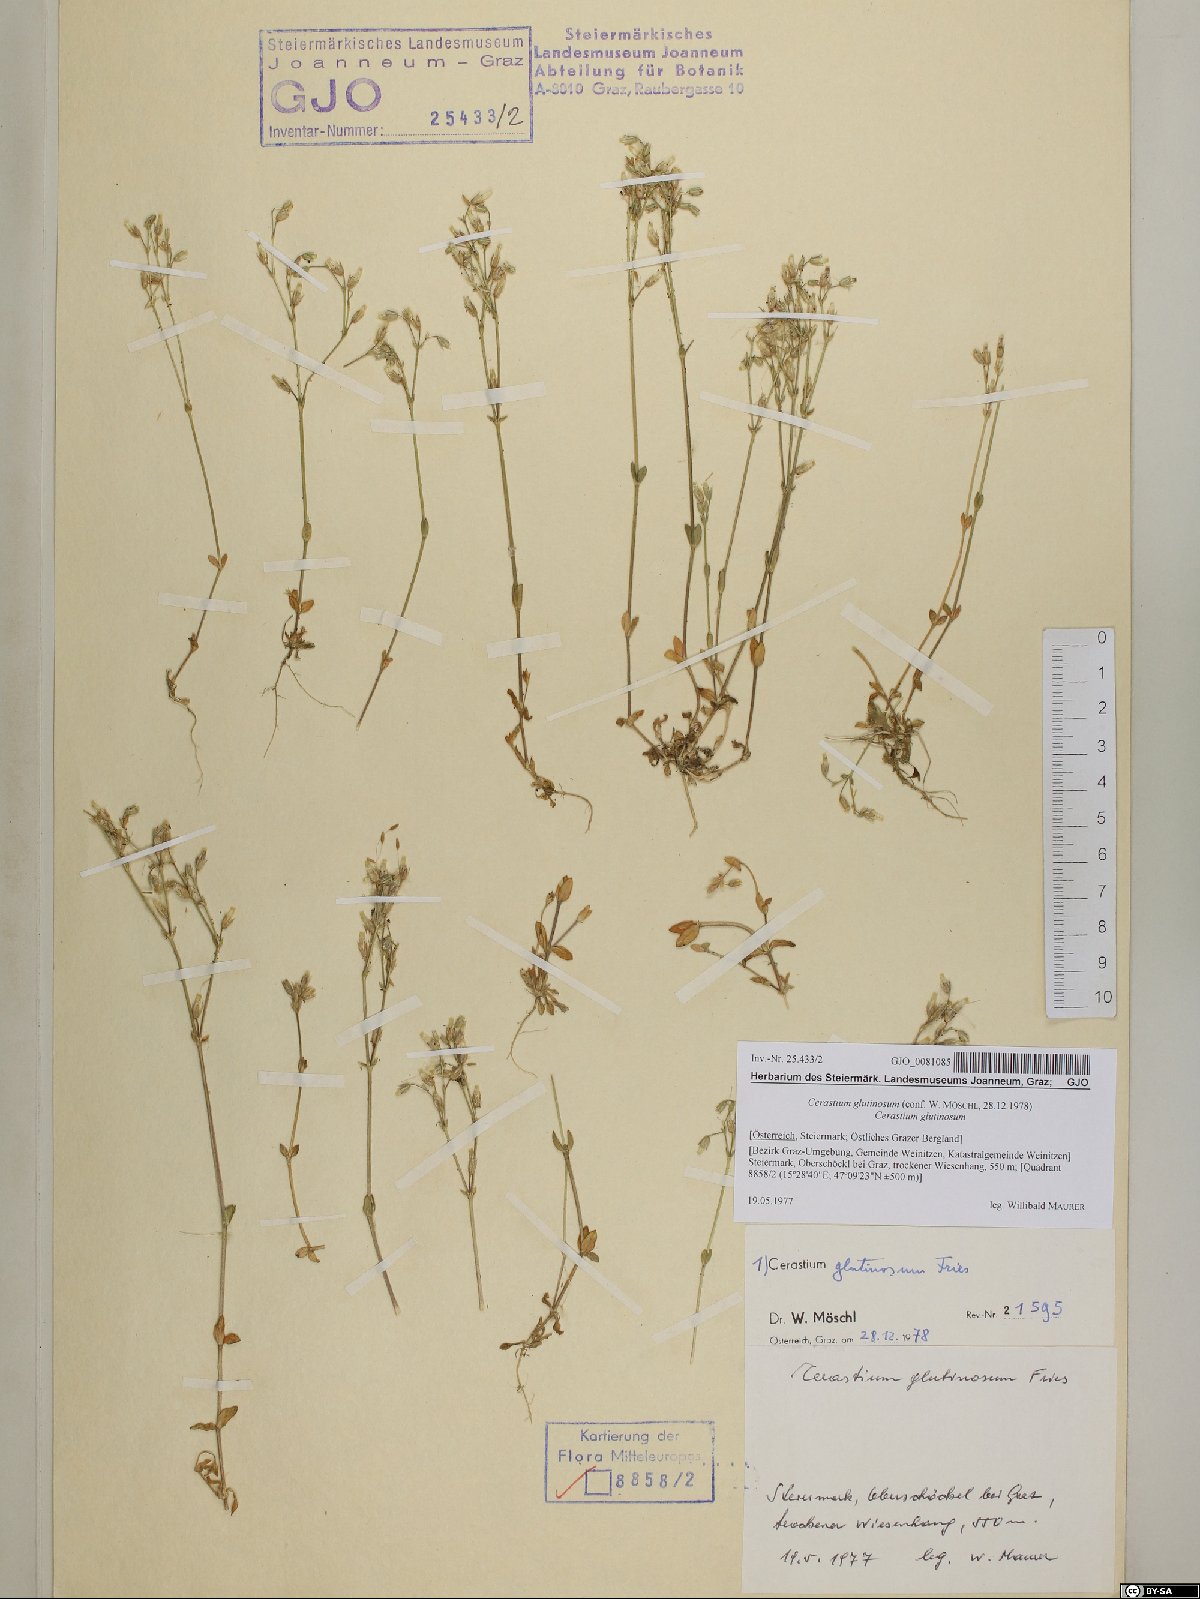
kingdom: Plantae
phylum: Tracheophyta
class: Magnoliopsida
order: Caryophyllales
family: Caryophyllaceae
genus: Cerastium
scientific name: Cerastium glutinosum
